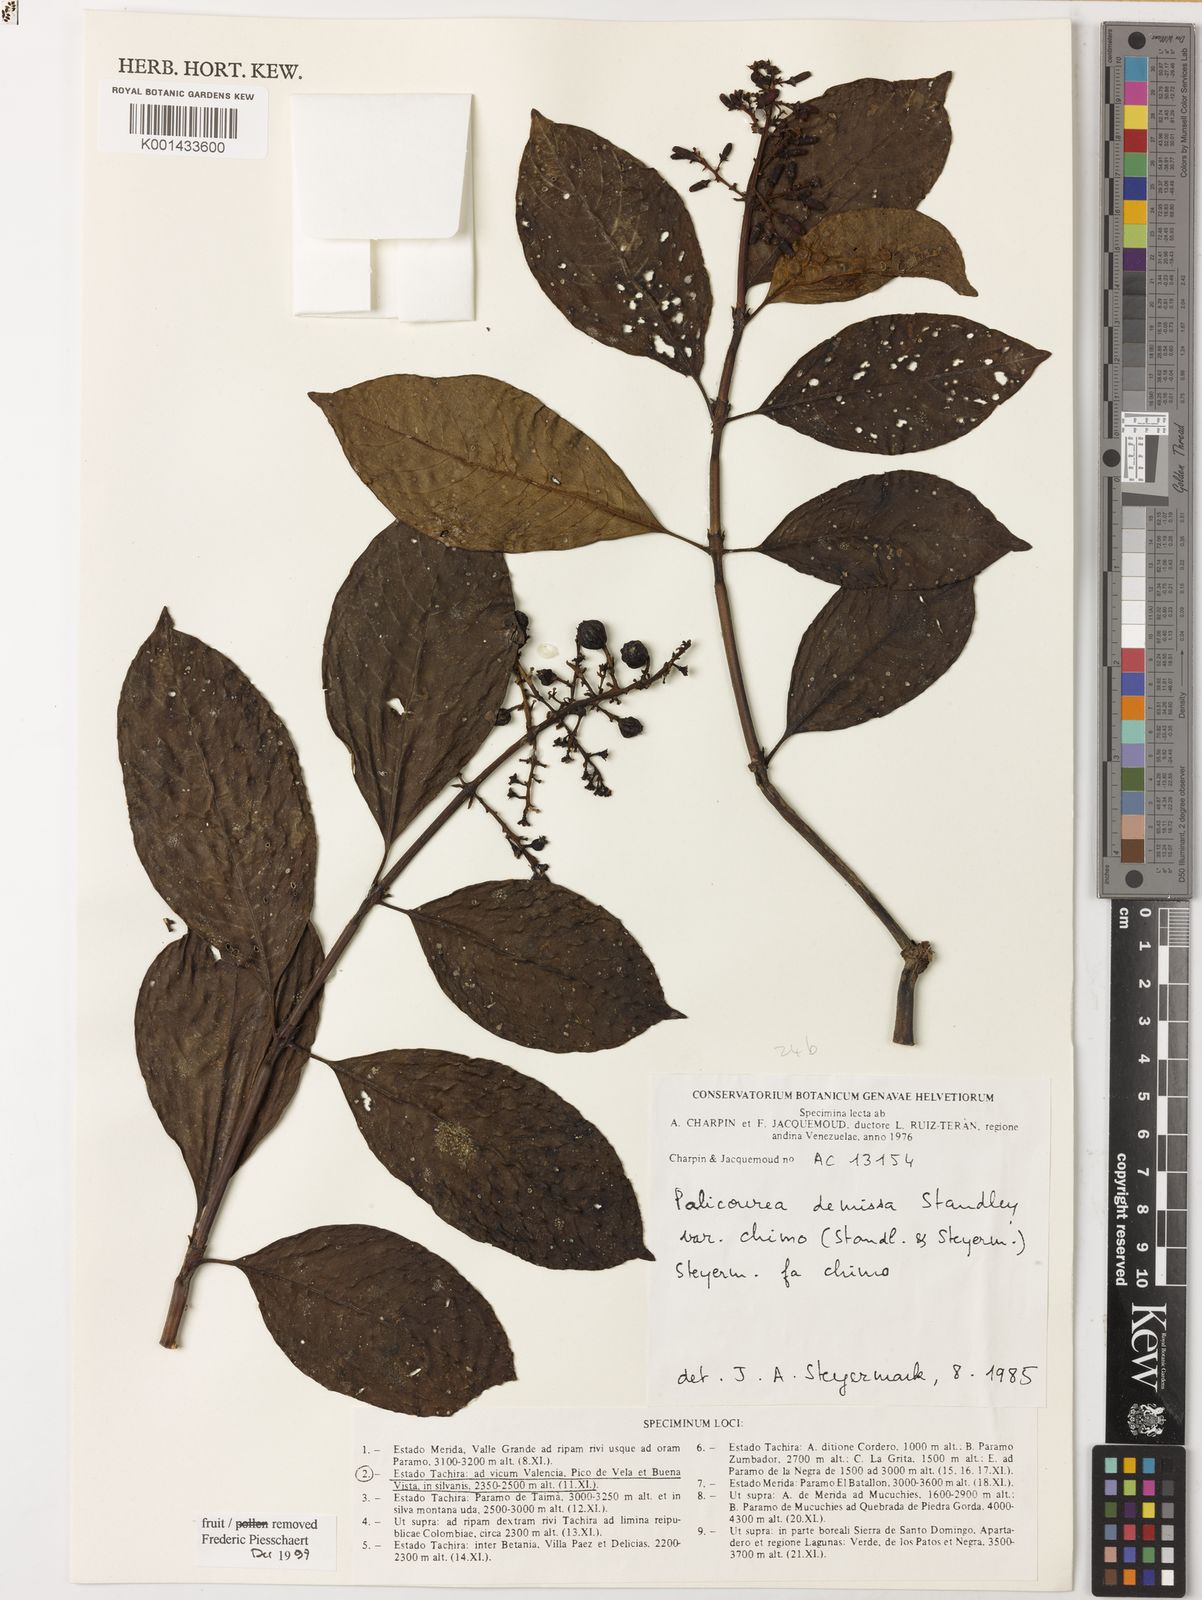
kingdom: Plantae
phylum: Tracheophyta
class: Magnoliopsida
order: Gentianales
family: Rubiaceae
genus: Palicourea
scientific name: Palicourea demissa
